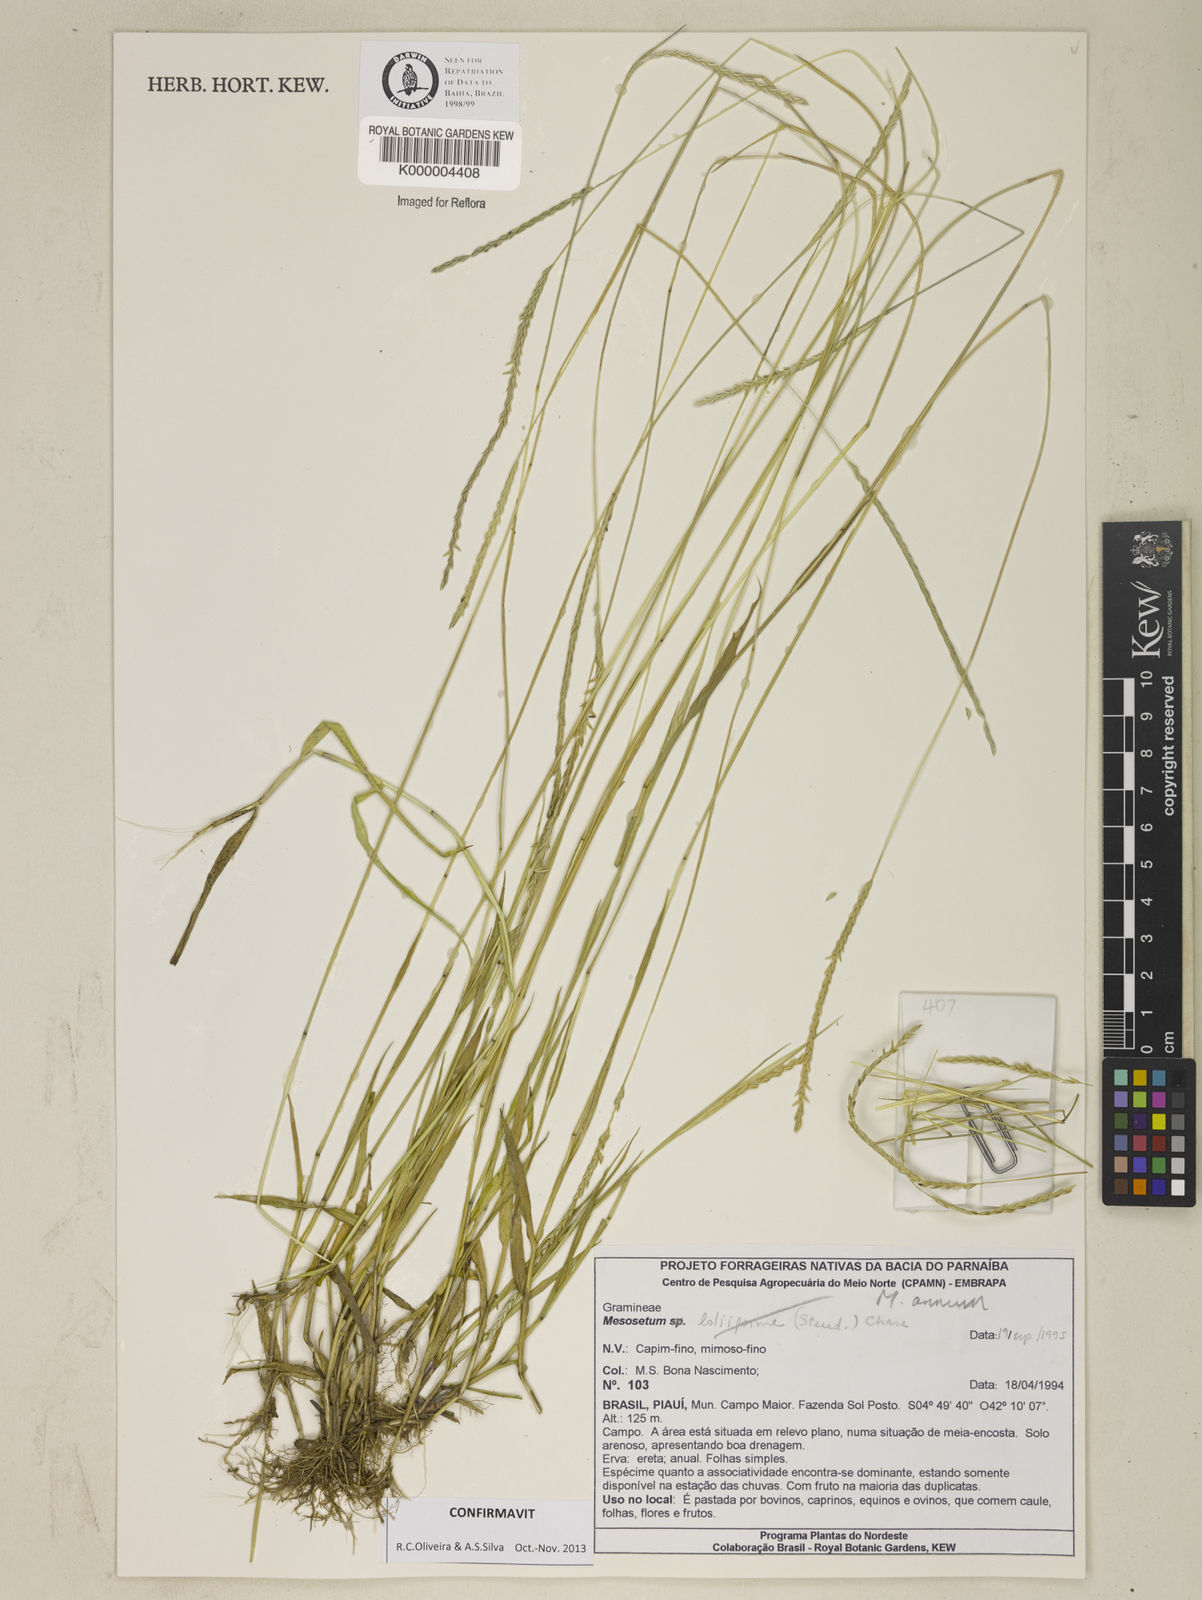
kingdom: Plantae
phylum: Tracheophyta
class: Liliopsida
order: Poales
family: Poaceae
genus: Mesosetum
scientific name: Mesosetum annuum
